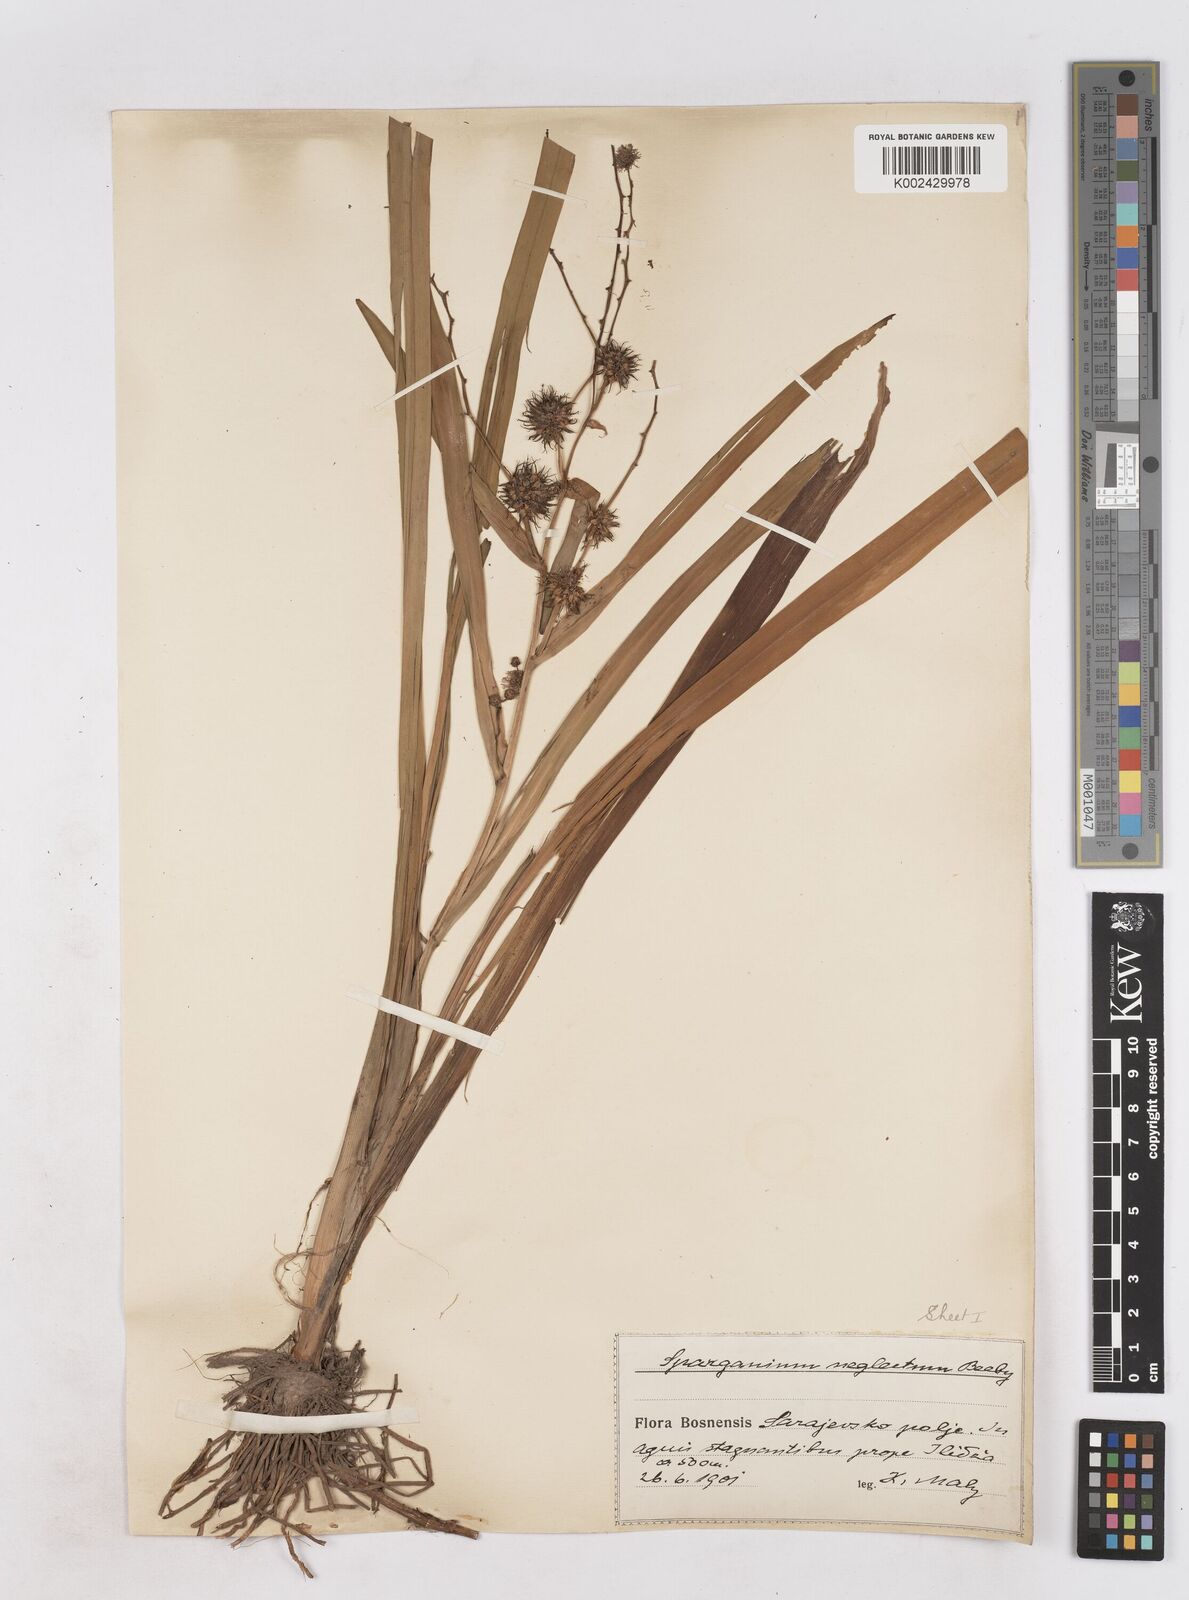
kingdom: Plantae
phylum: Tracheophyta
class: Liliopsida
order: Poales
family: Typhaceae
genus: Sparganium
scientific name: Sparganium erectum
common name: Branched bur-reed
